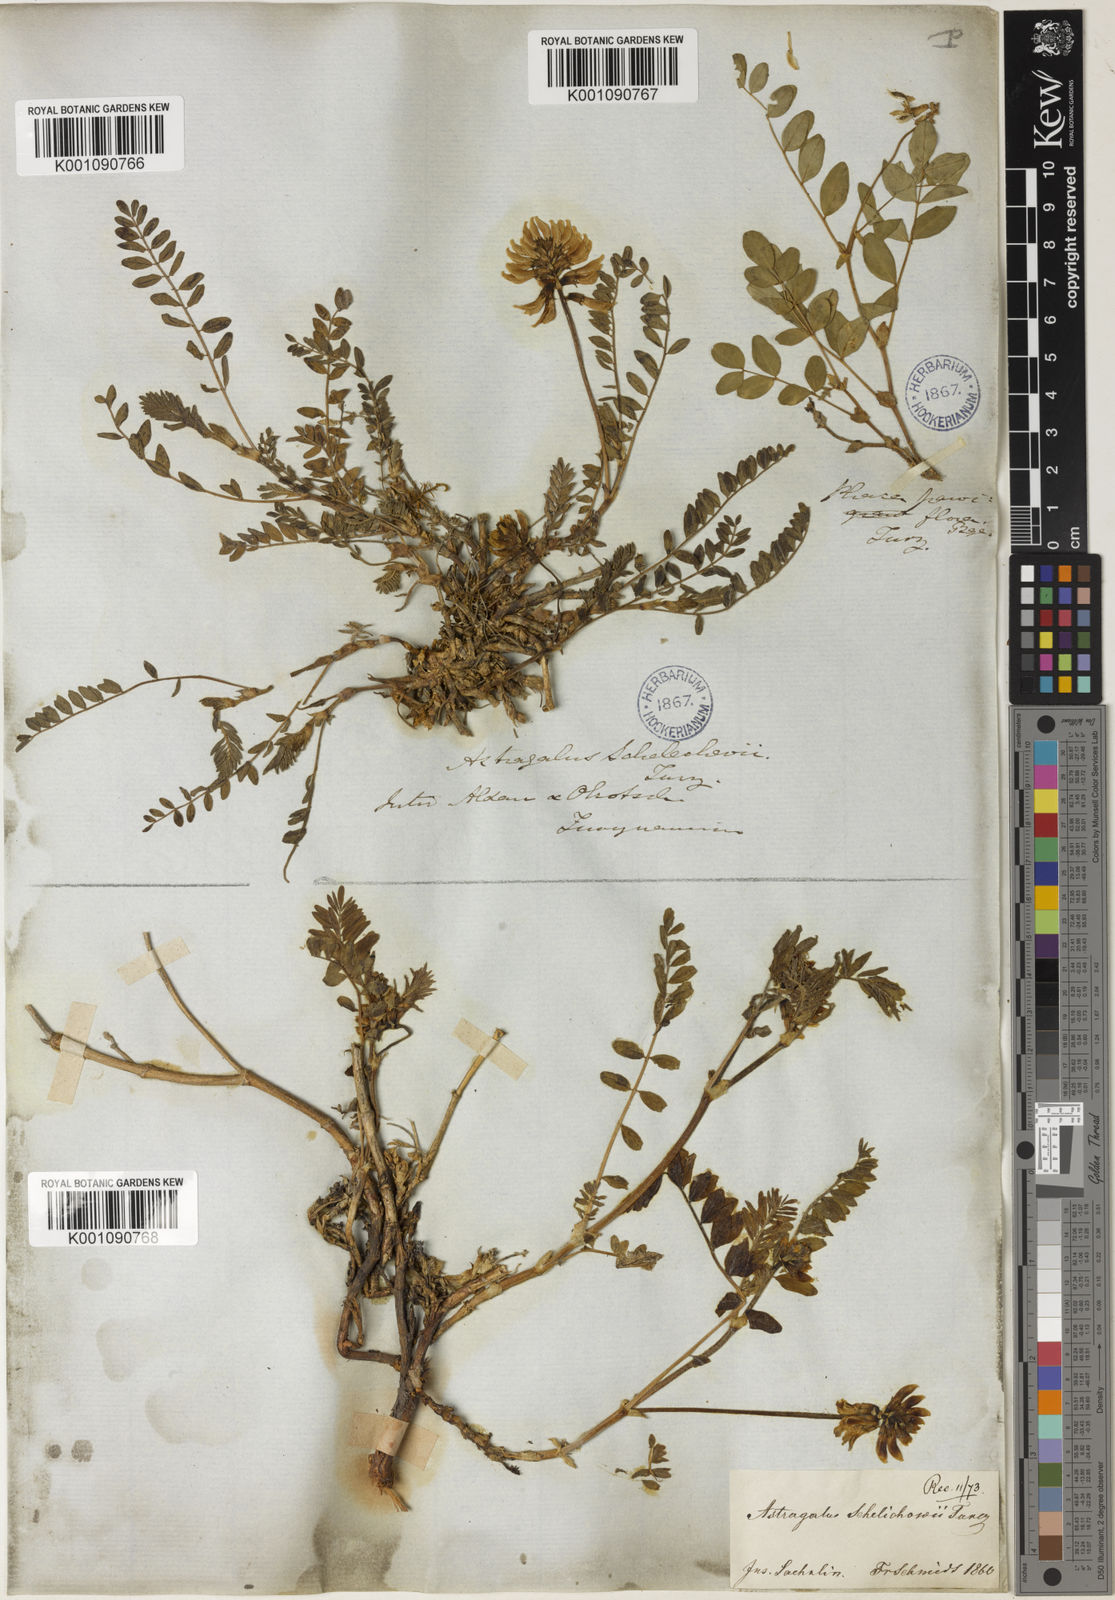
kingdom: Plantae
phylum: Tracheophyta
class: Magnoliopsida
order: Fabales
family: Fabaceae
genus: Astragalus
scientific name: Astragalus
